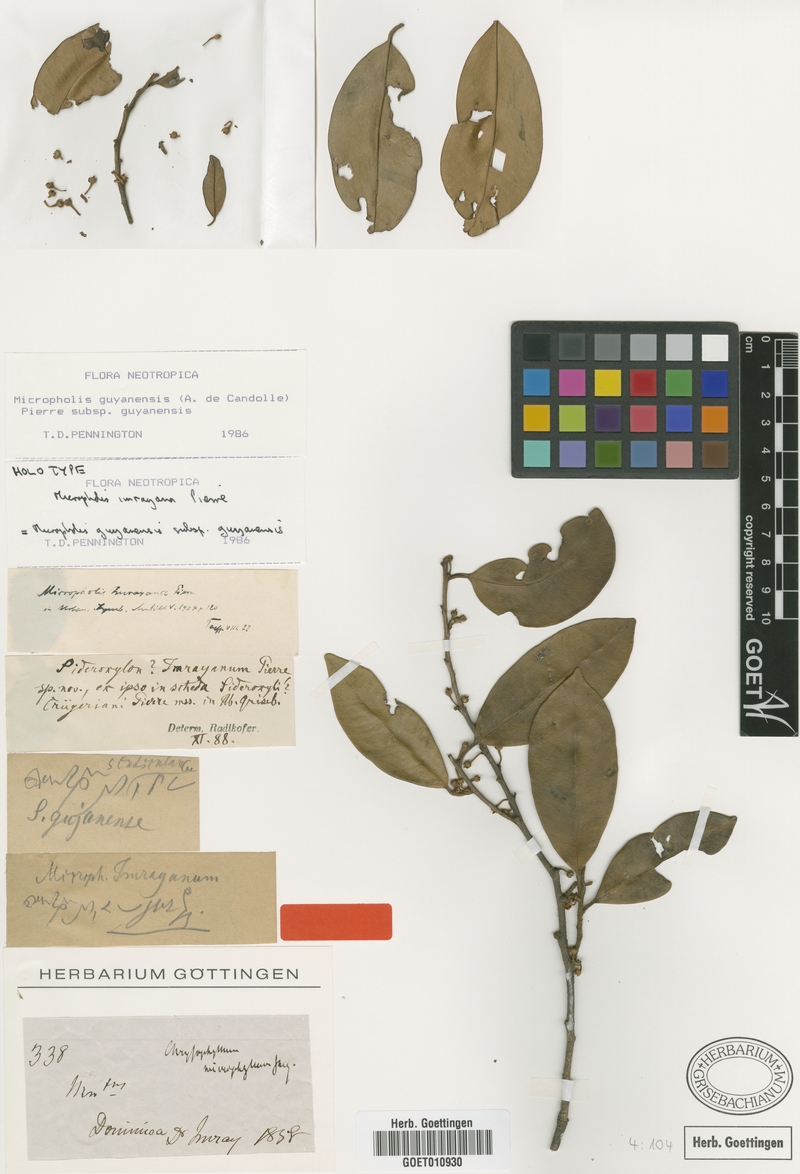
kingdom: Plantae
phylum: Tracheophyta
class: Magnoliopsida
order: Ericales
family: Sapotaceae
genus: Micropholis
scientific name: Micropholis guyanensis
